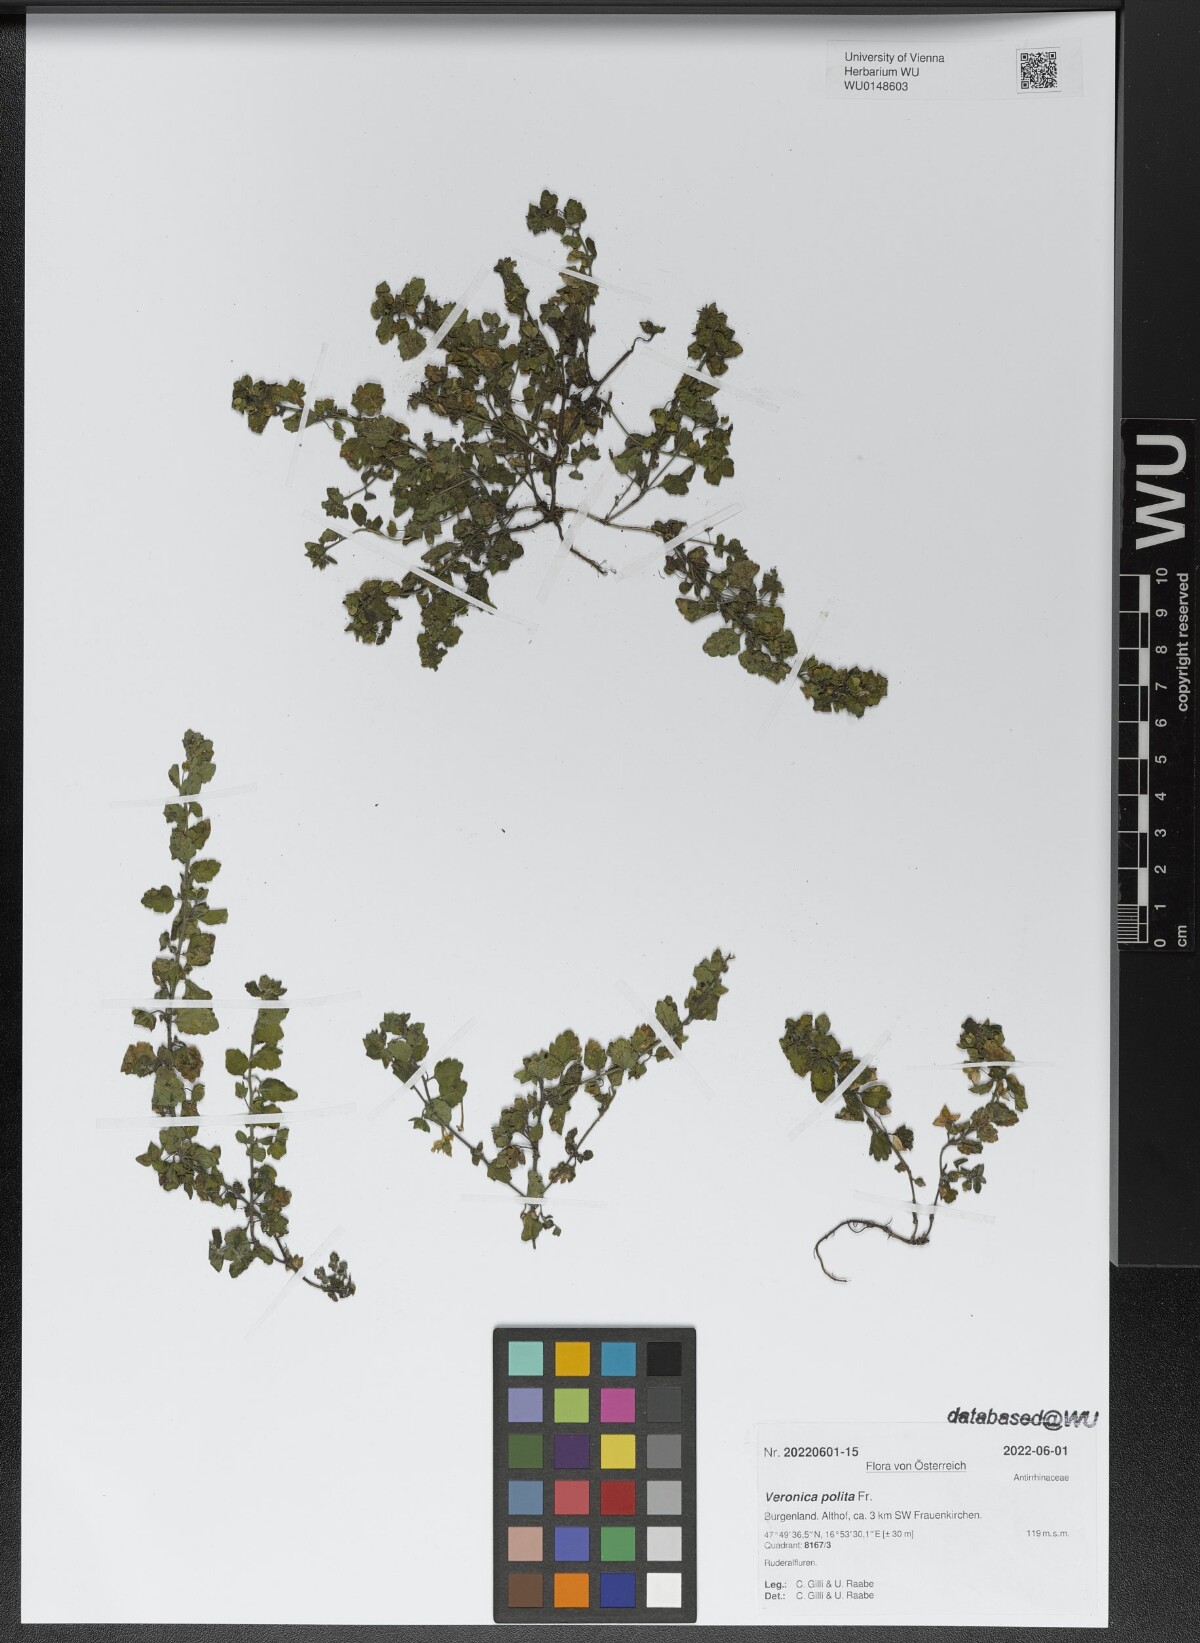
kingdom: Plantae
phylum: Tracheophyta
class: Magnoliopsida
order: Lamiales
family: Plantaginaceae
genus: Veronica
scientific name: Veronica polita
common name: Grey field-speedwell
